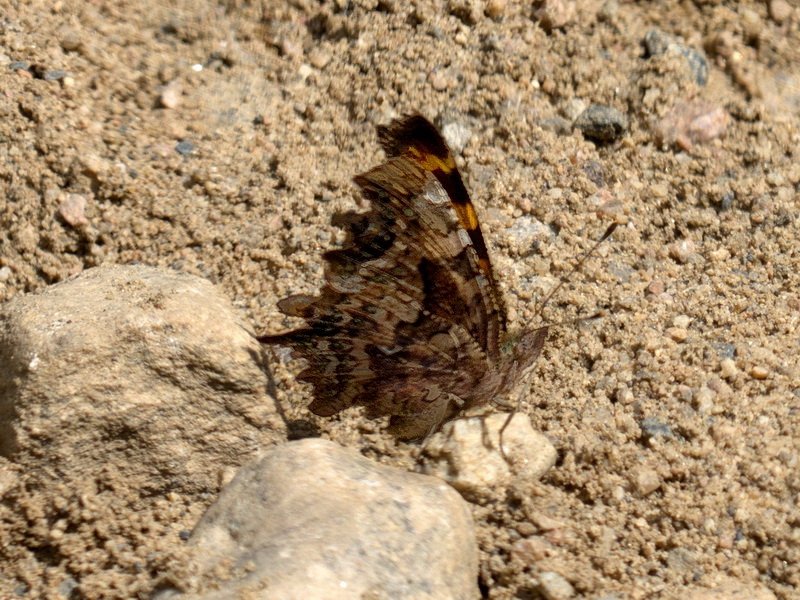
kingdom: Animalia
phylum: Arthropoda
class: Insecta
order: Lepidoptera
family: Nymphalidae
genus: Polygonia
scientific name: Polygonia faunus
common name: Green Comma
